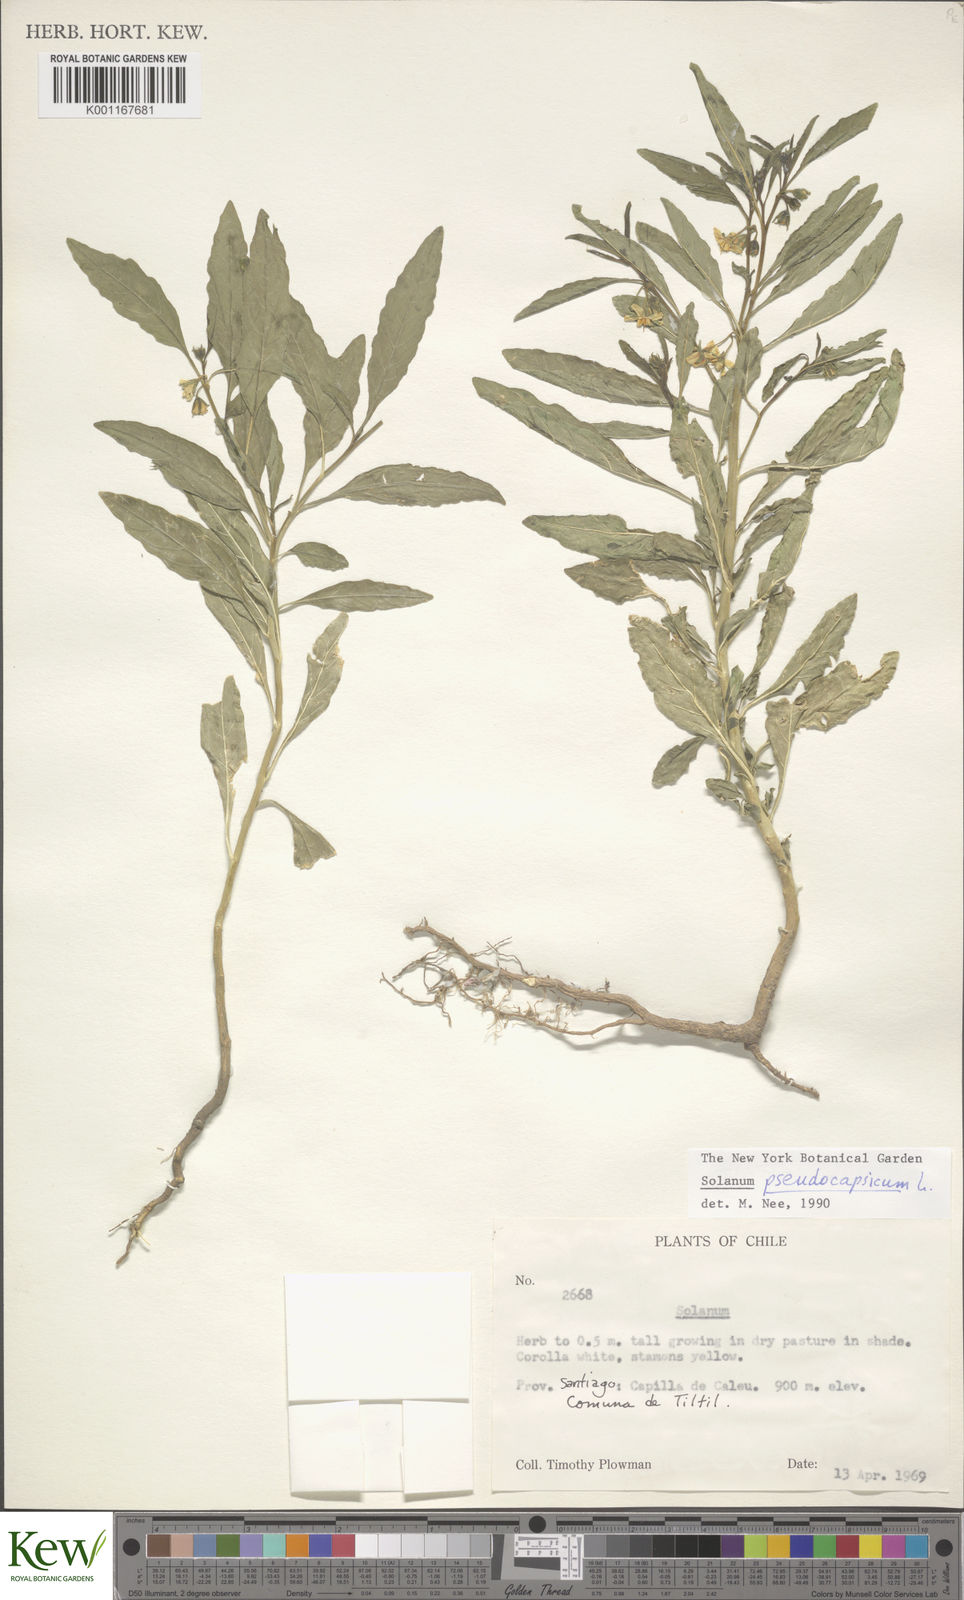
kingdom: Plantae
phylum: Tracheophyta
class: Magnoliopsida
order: Solanales
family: Solanaceae
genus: Solanum
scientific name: Solanum pseudocapsicum
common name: Jerusalem cherry
